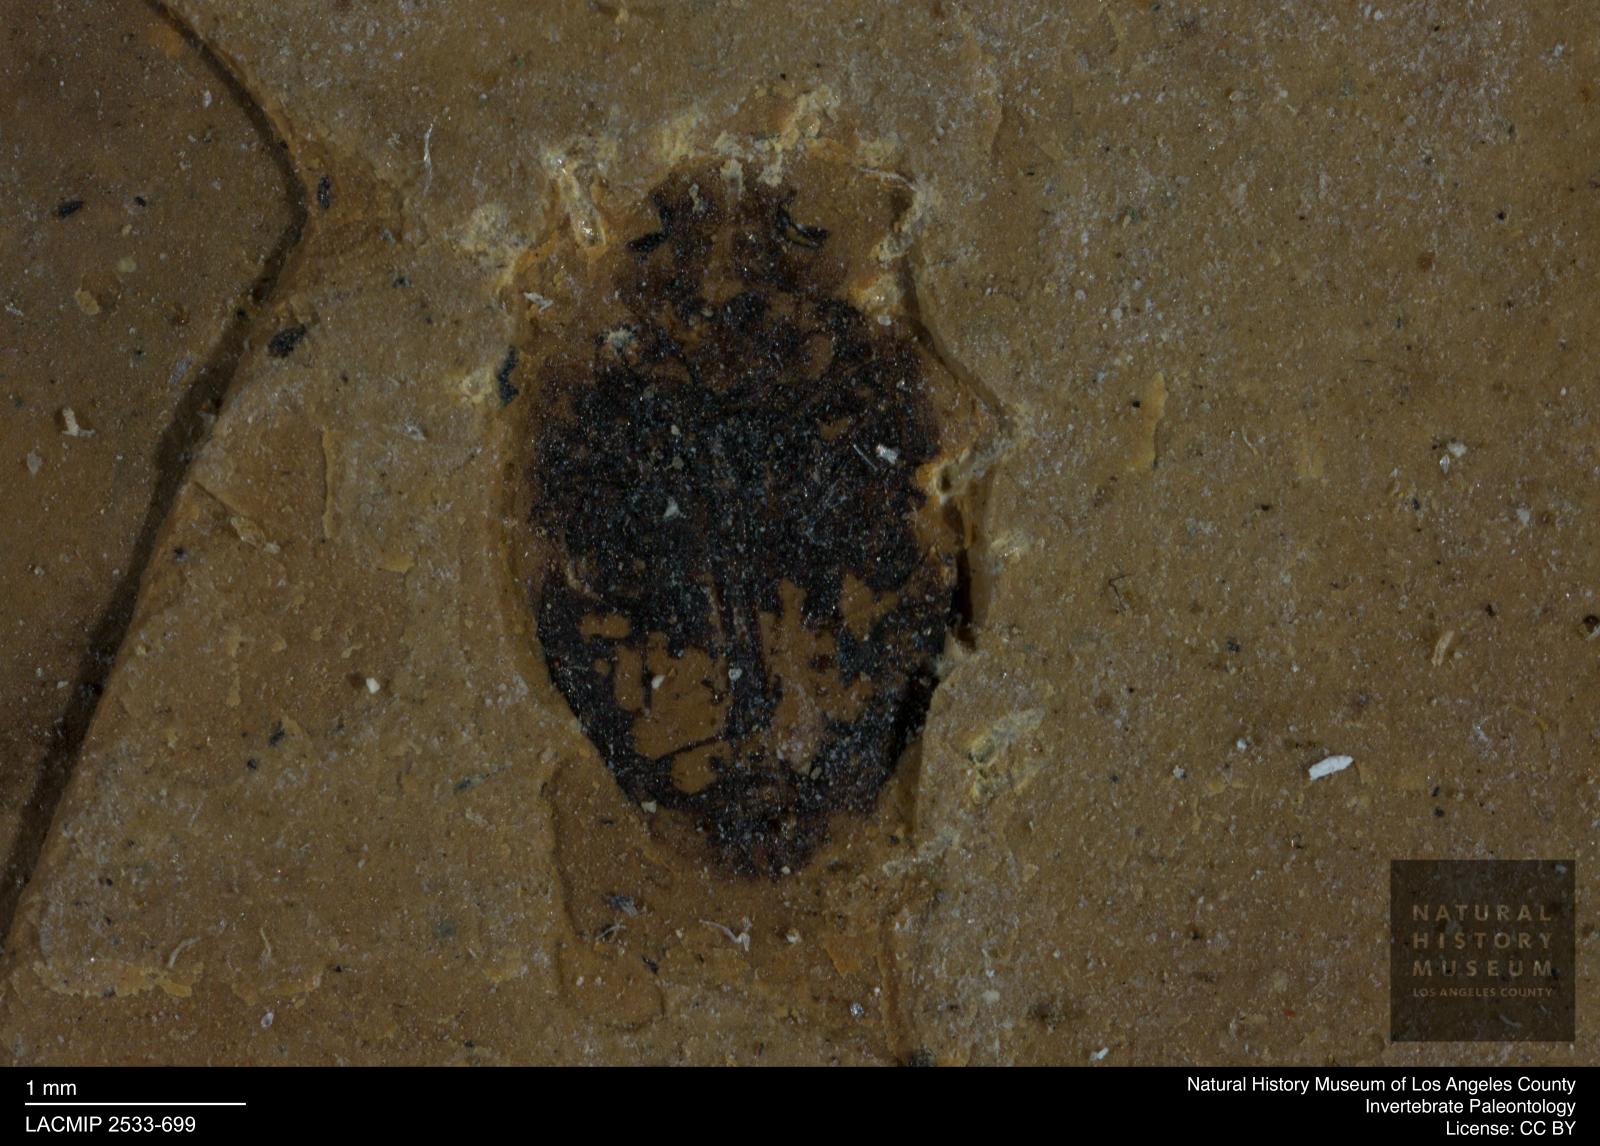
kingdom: Animalia
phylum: Arthropoda
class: Insecta
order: Coleoptera
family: Dytiscidae
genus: Oreodytes
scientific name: Oreodytes cryptolineatus
